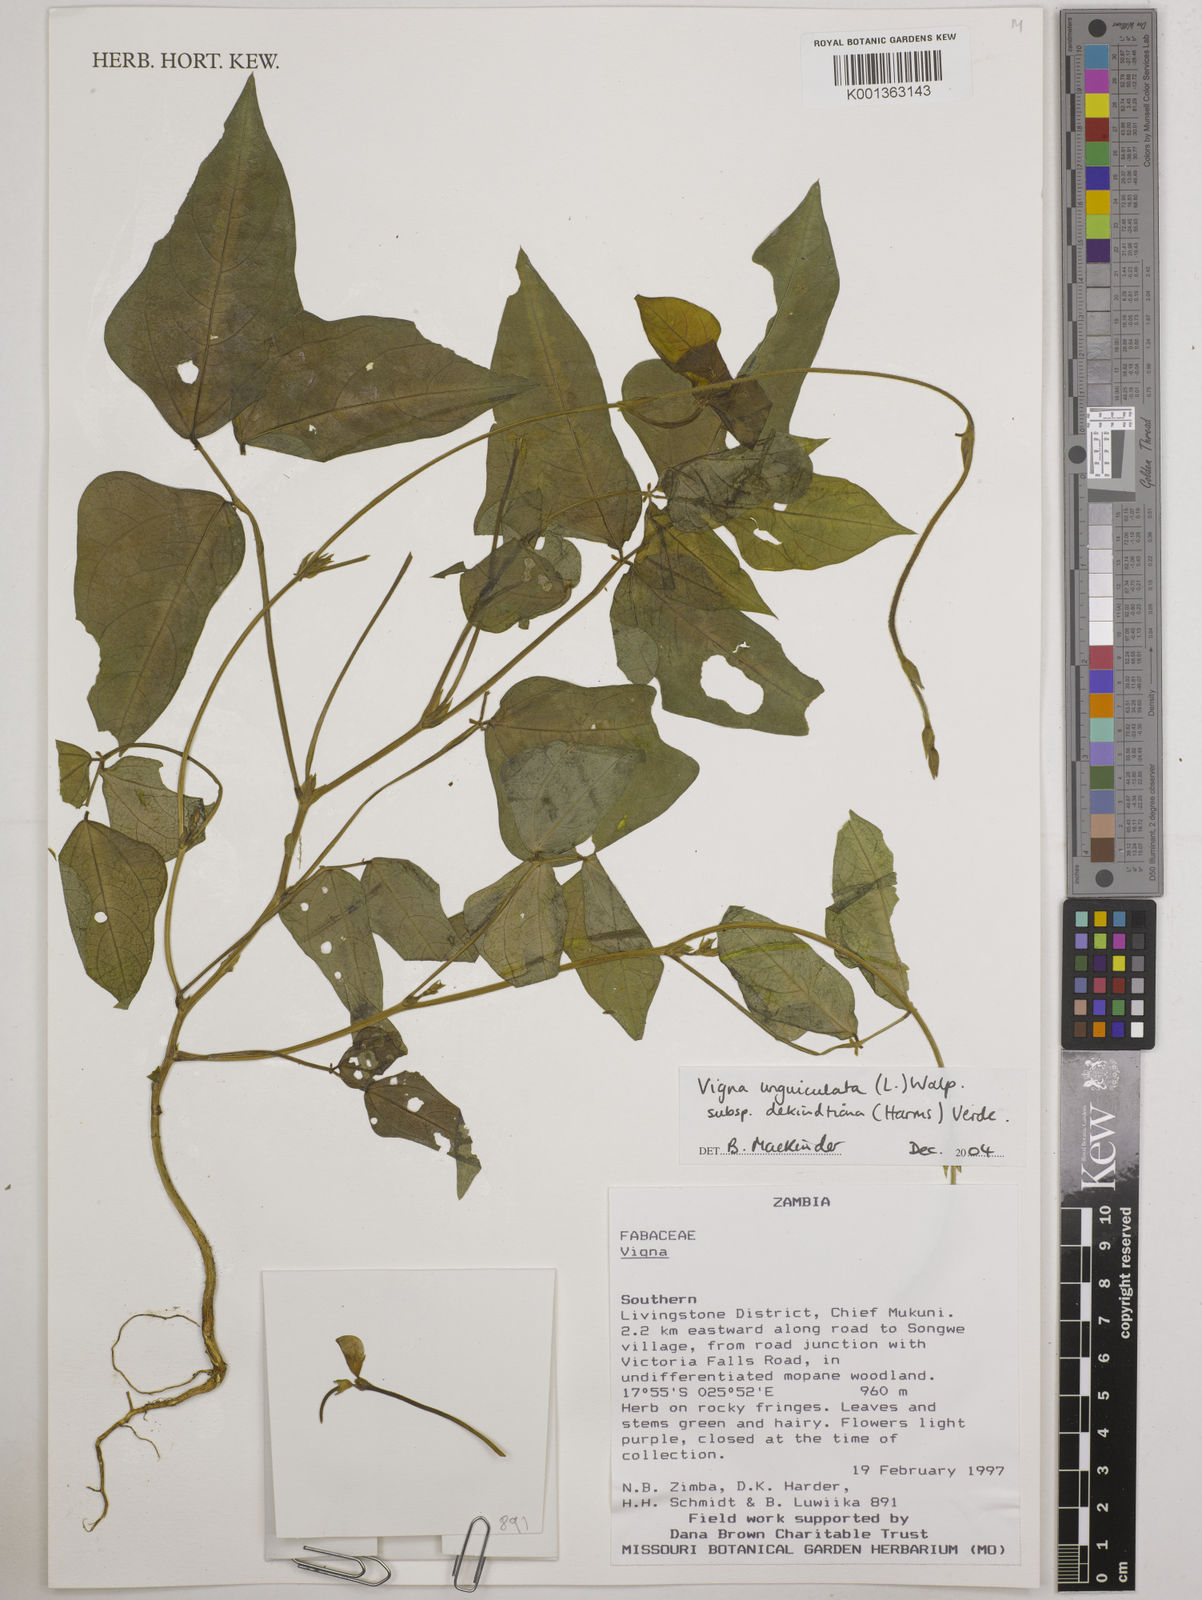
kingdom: Plantae
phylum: Tracheophyta
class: Magnoliopsida
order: Fabales
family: Fabaceae
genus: Vigna
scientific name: Vigna
